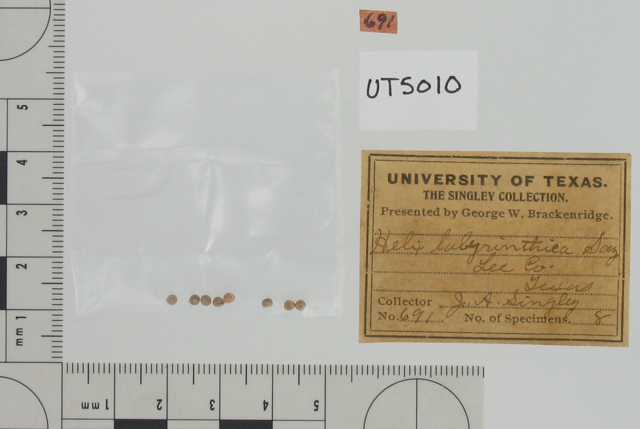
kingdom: Animalia
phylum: Mollusca
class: Gastropoda
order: Stylommatophora
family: Strobilopsidae
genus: Strobilops
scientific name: Strobilops labyrinthicus
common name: Maze pinecone
